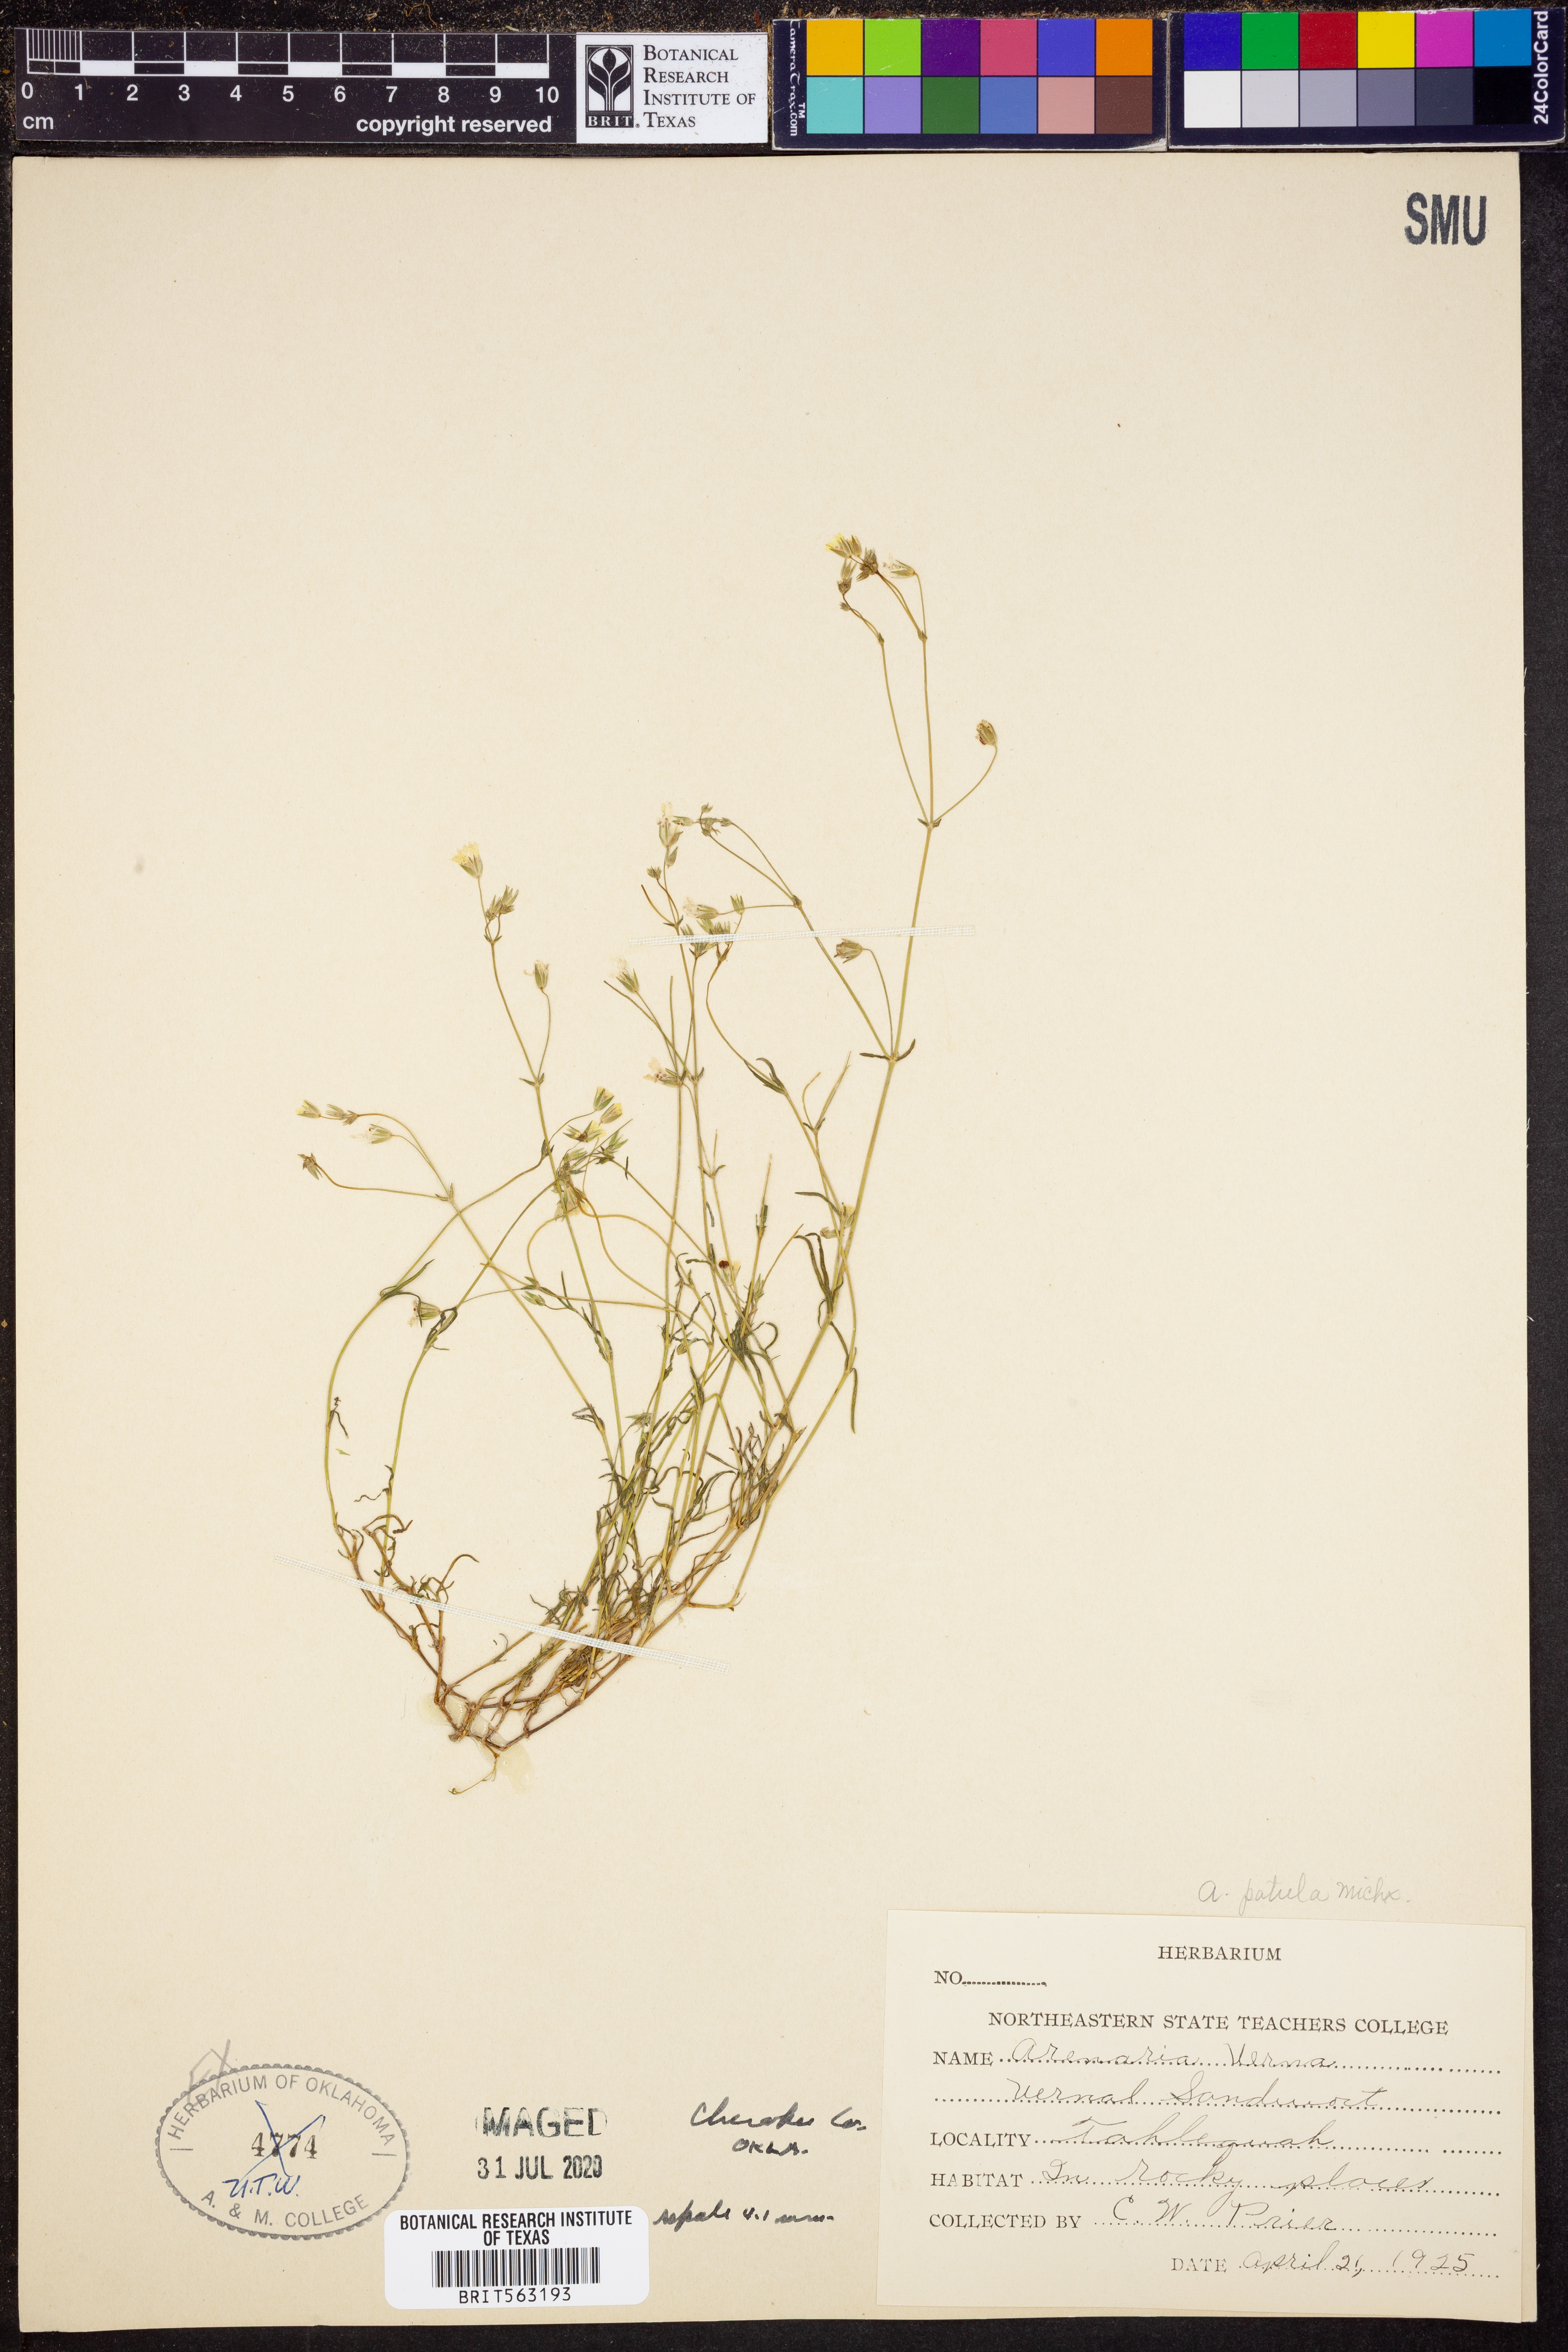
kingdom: Plantae
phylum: Tracheophyta
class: Magnoliopsida
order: Caryophyllales
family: Caryophyllaceae
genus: Mononeuria
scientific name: Mononeuria patula
